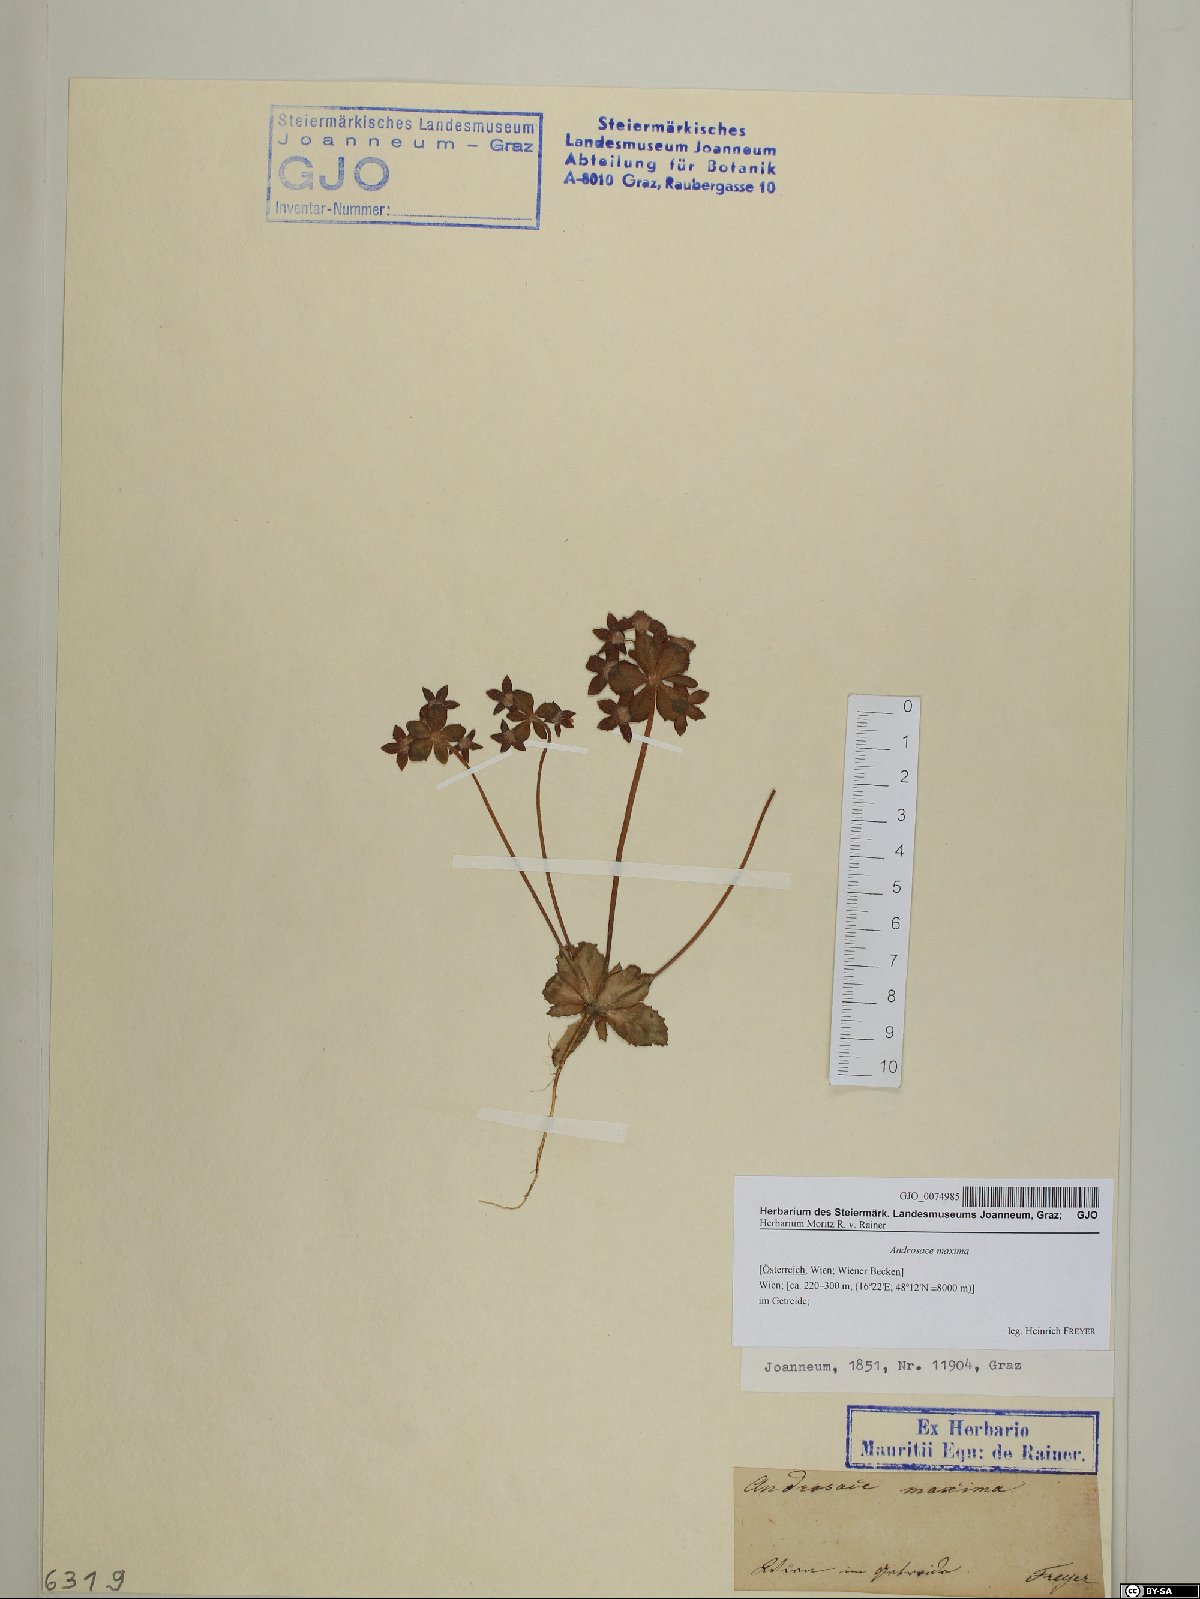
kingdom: Plantae
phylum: Tracheophyta
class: Magnoliopsida
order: Ericales
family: Primulaceae
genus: Androsace
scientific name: Androsace maxima
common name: Annual androsace
